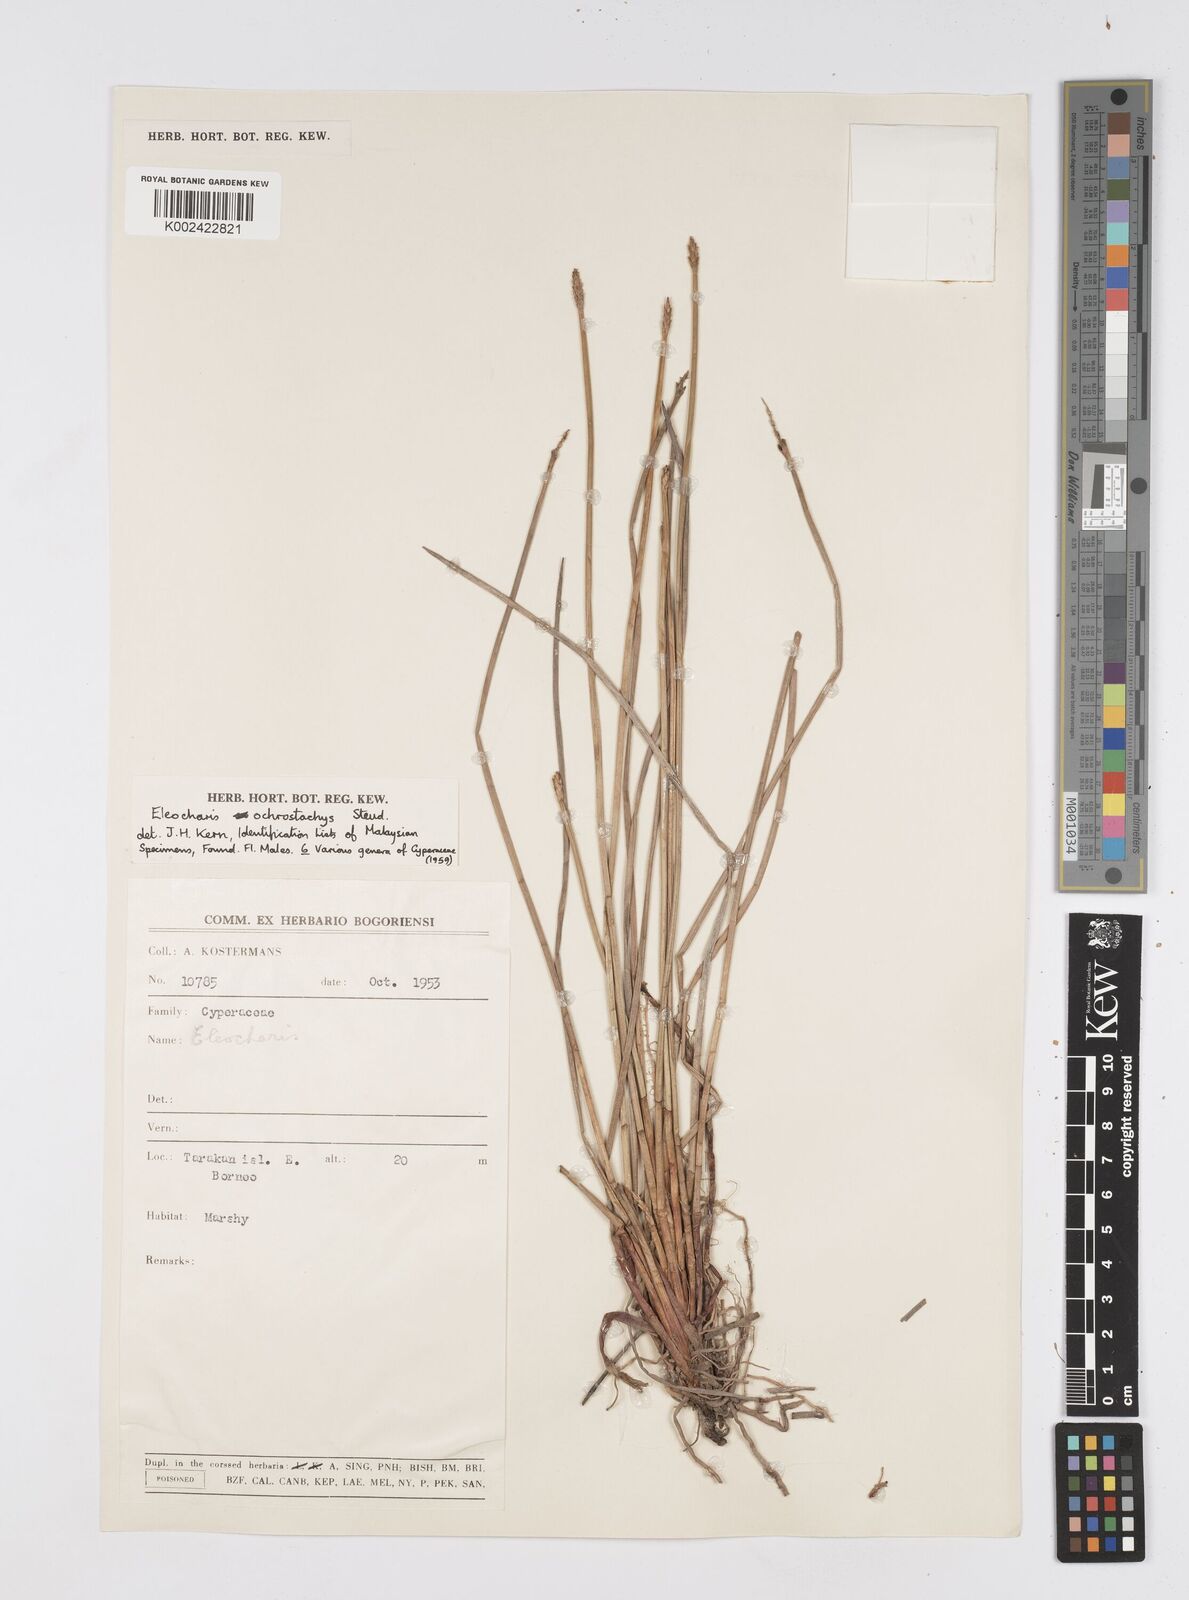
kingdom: Plantae
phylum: Tracheophyta
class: Liliopsida
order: Poales
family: Cyperaceae
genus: Eleocharis
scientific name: Eleocharis ochrostachys
